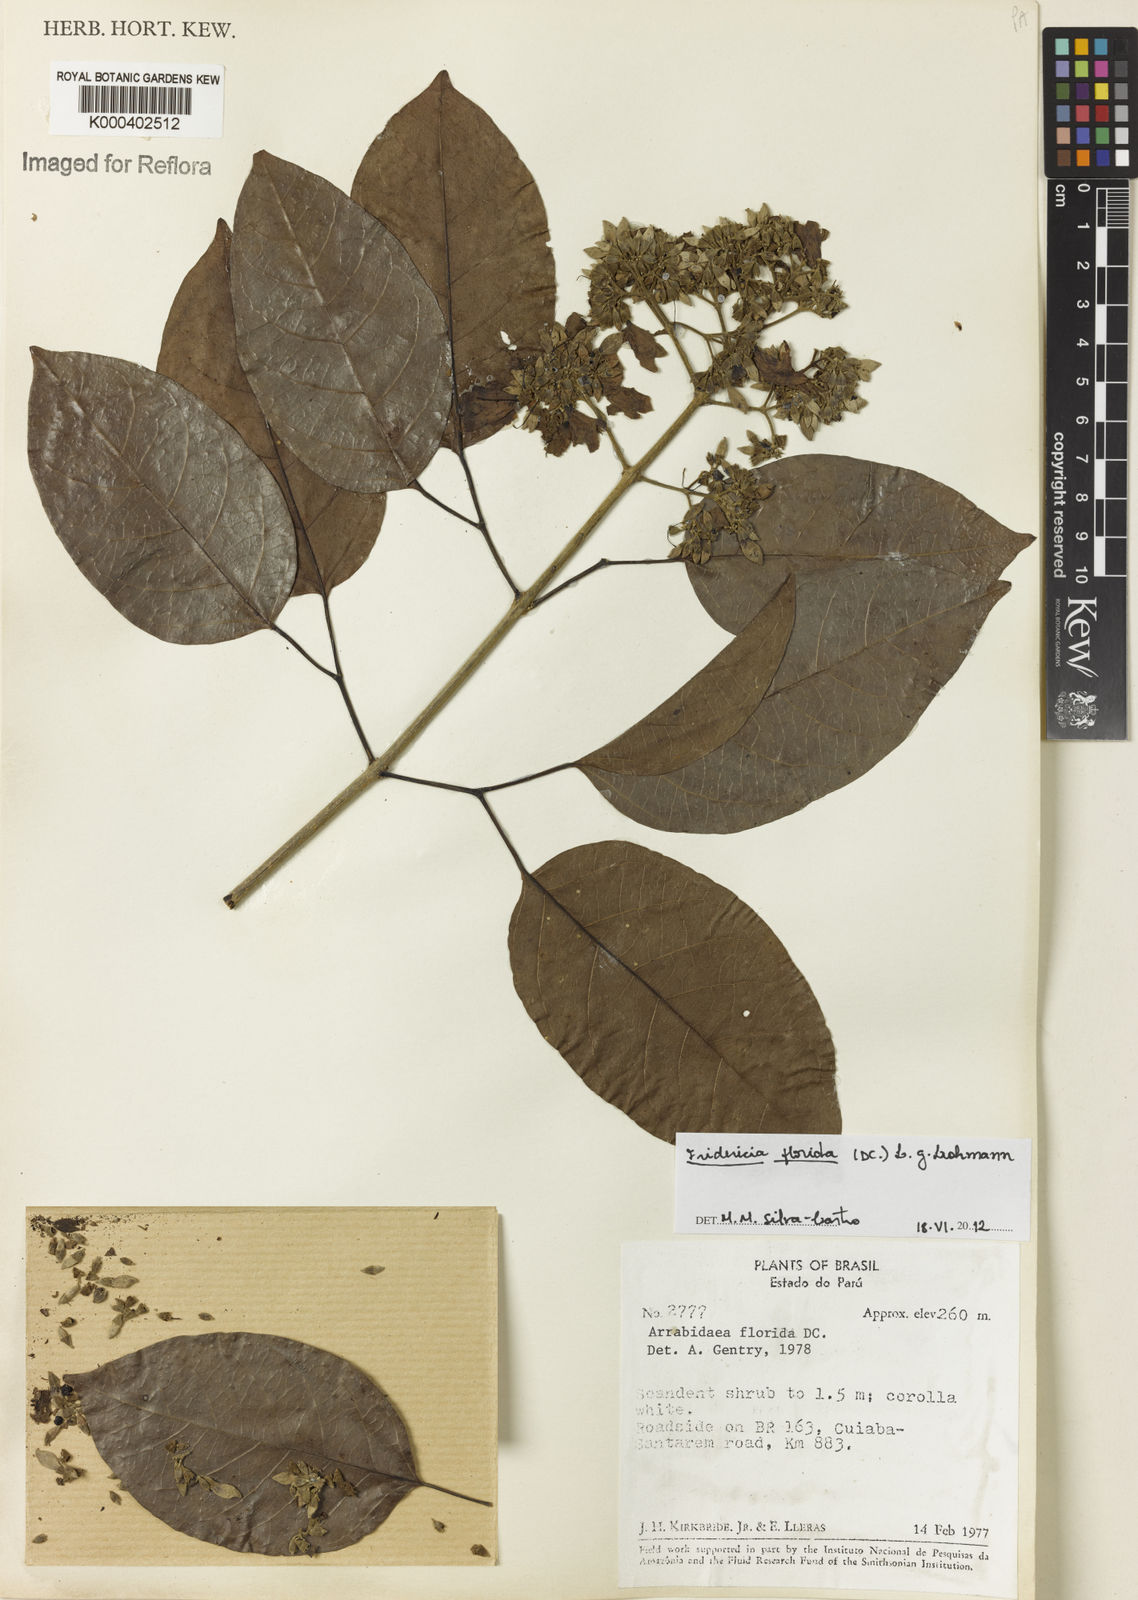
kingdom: Plantae
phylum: Tracheophyta
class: Magnoliopsida
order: Lamiales
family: Bignoniaceae
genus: Fridericia
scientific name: Fridericia florida
